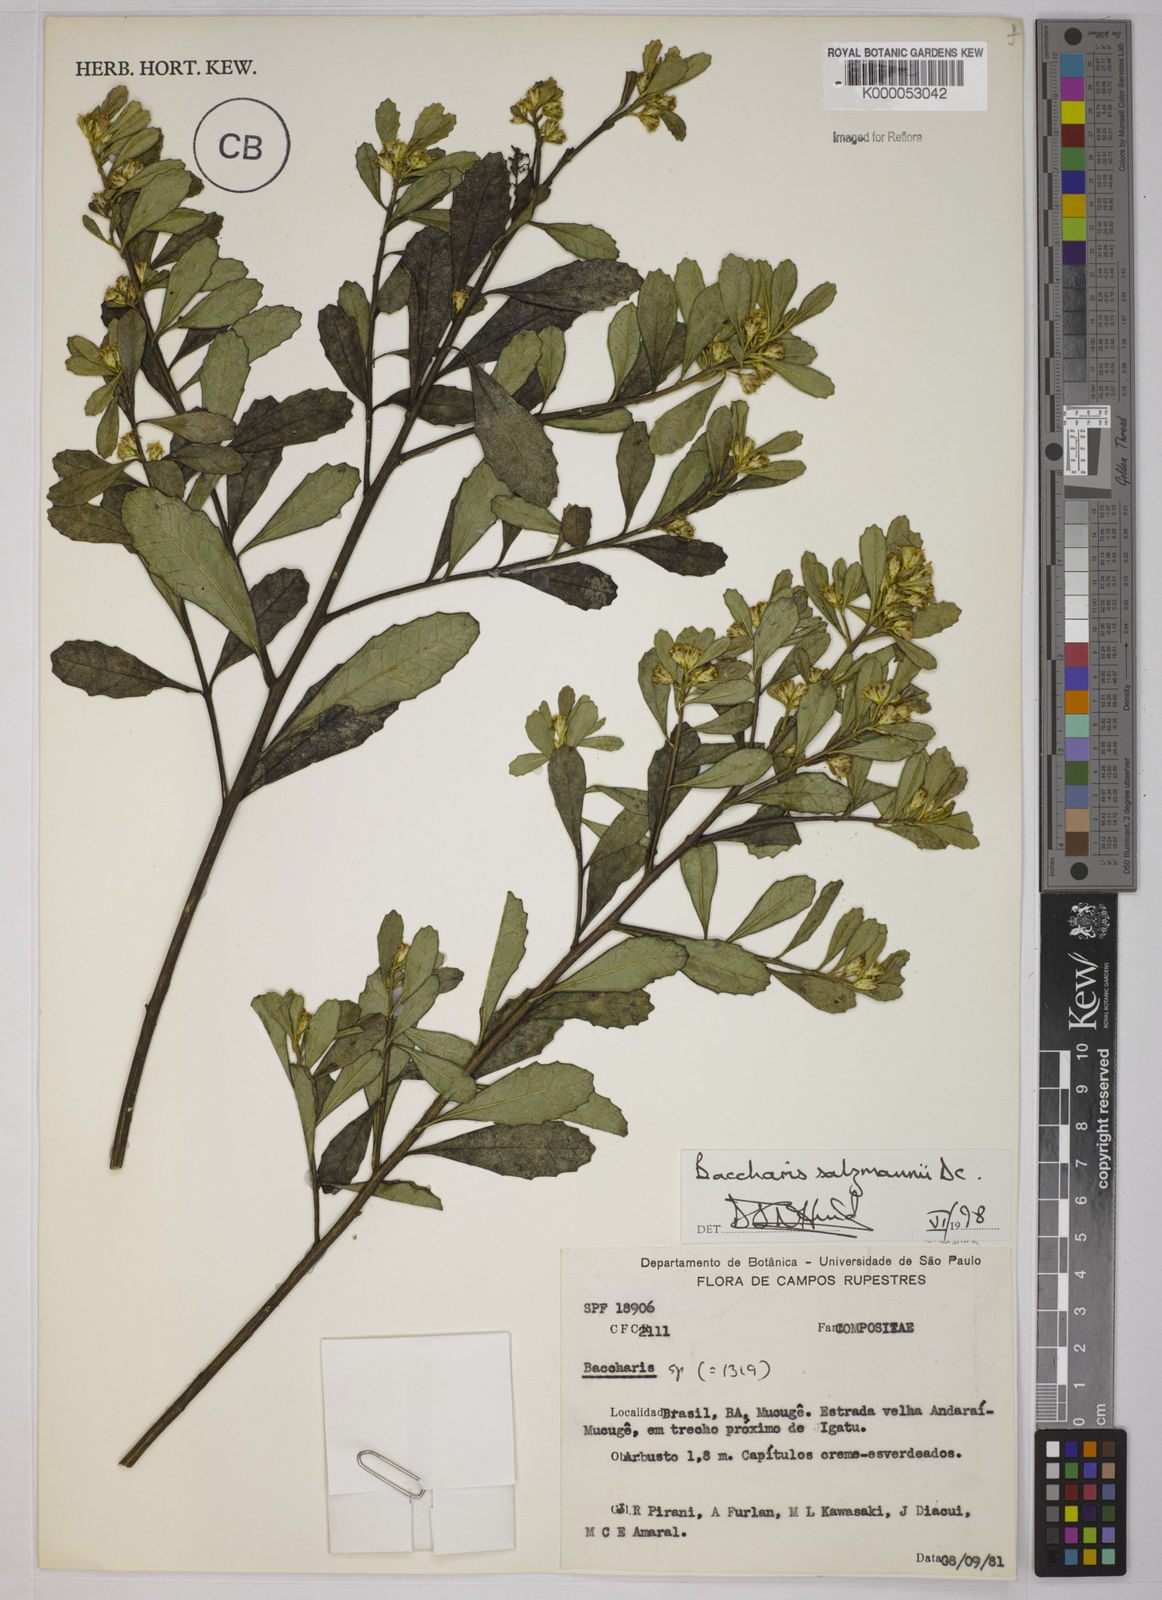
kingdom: Plantae
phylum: Tracheophyta
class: Magnoliopsida
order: Asterales
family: Asteraceae
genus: Baccharis
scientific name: Baccharis retusa
